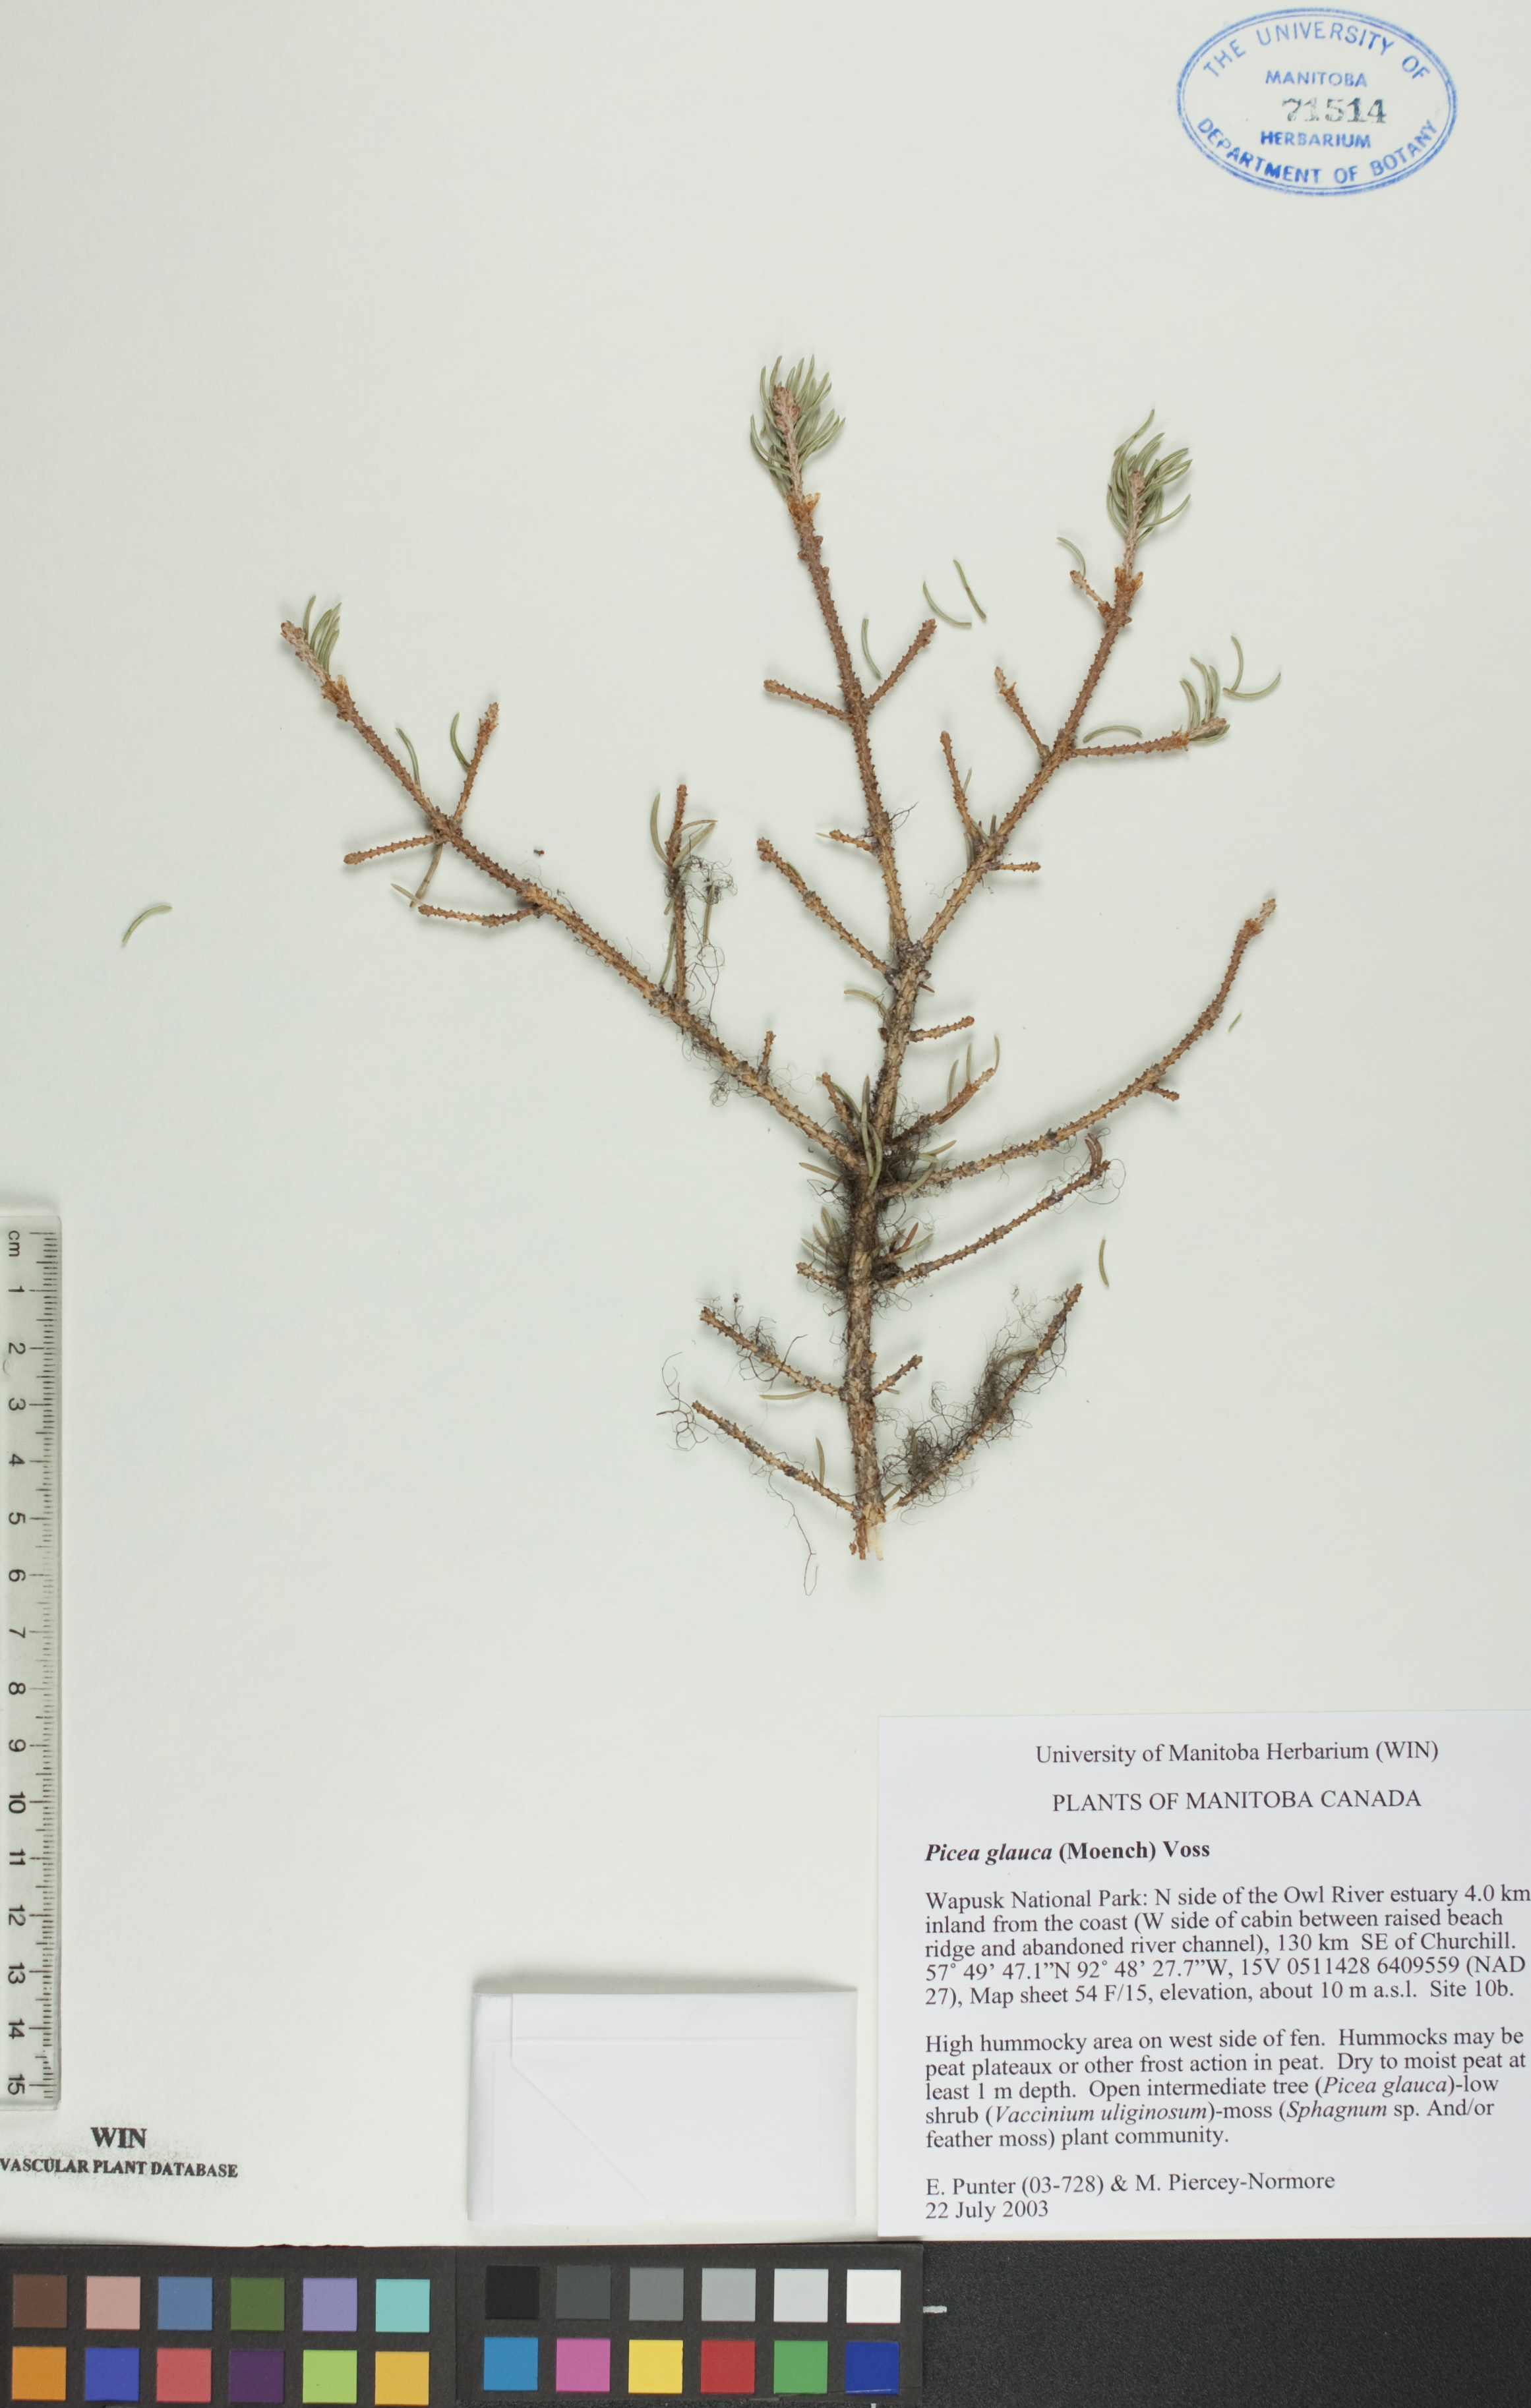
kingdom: Plantae
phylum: Tracheophyta
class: Pinopsida
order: Pinales
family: Pinaceae
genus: Picea
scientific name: Picea glauca
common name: White spruce
